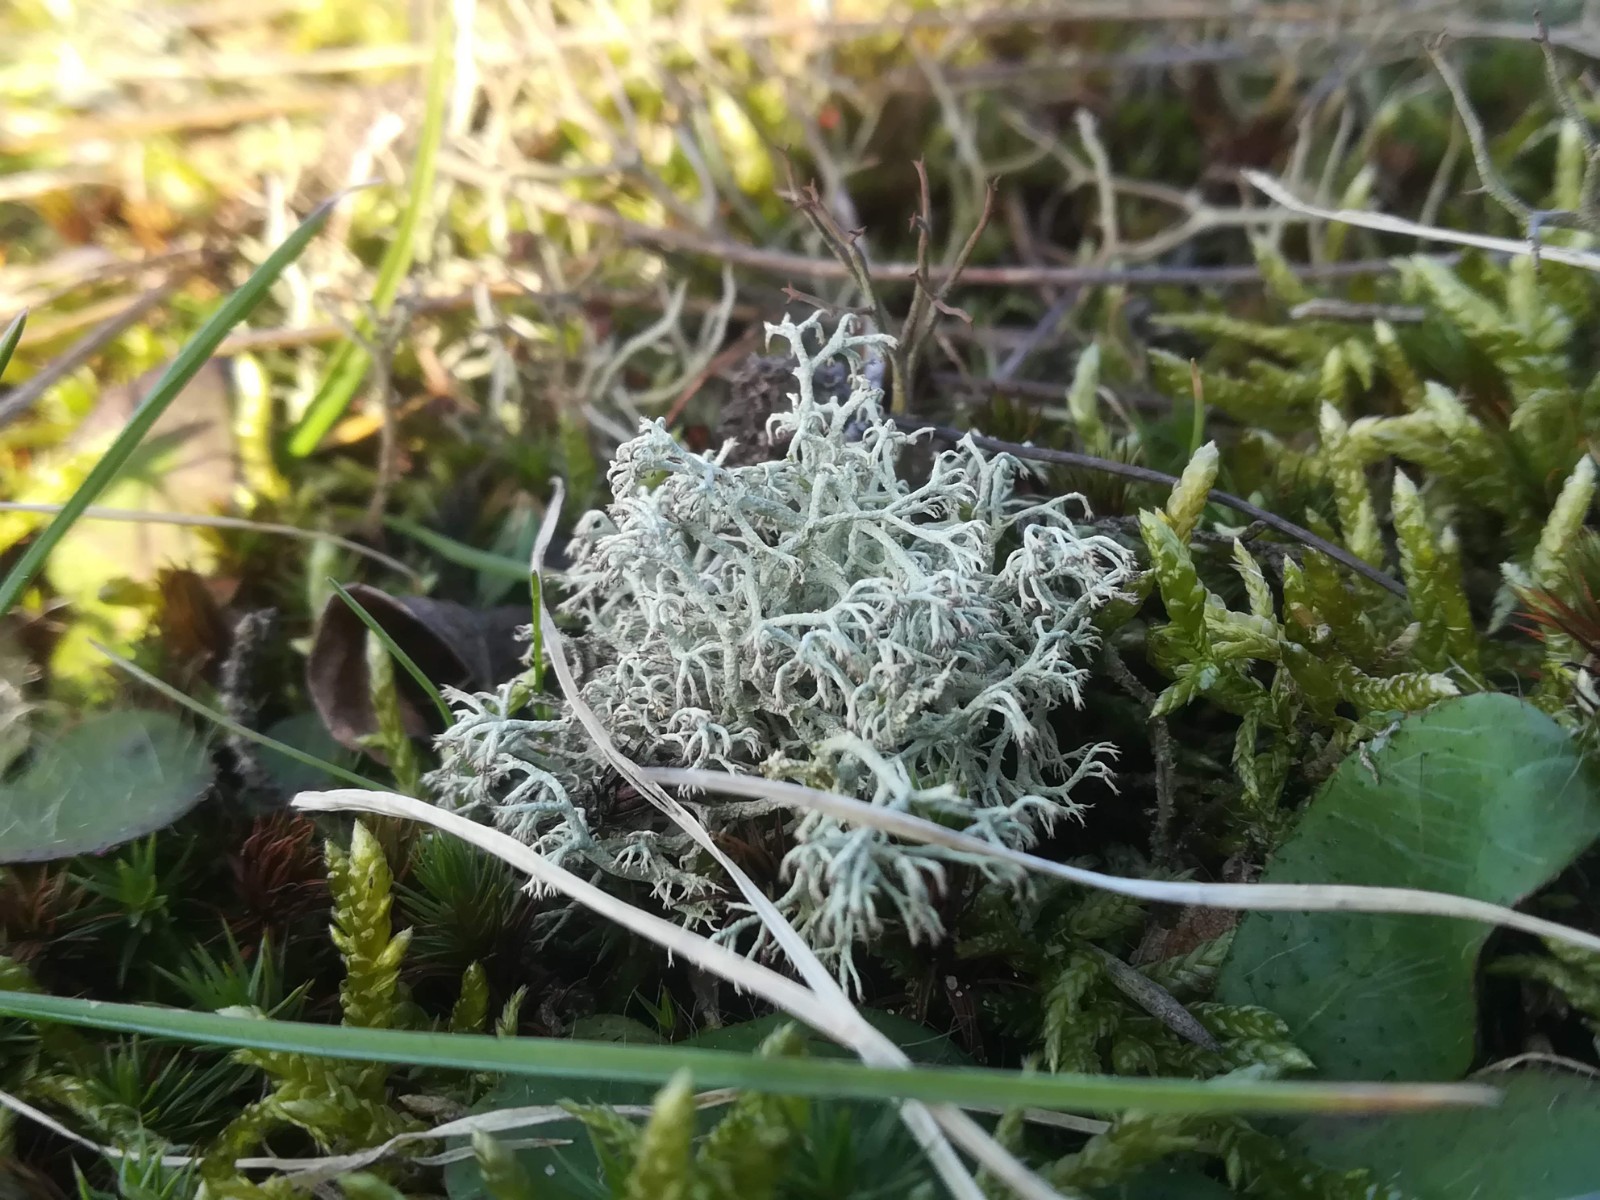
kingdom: Fungi
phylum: Ascomycota
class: Lecanoromycetes
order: Lecanorales
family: Cladoniaceae
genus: Cladonia
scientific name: Cladonia ciliata
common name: spinkel rensdyrlav
